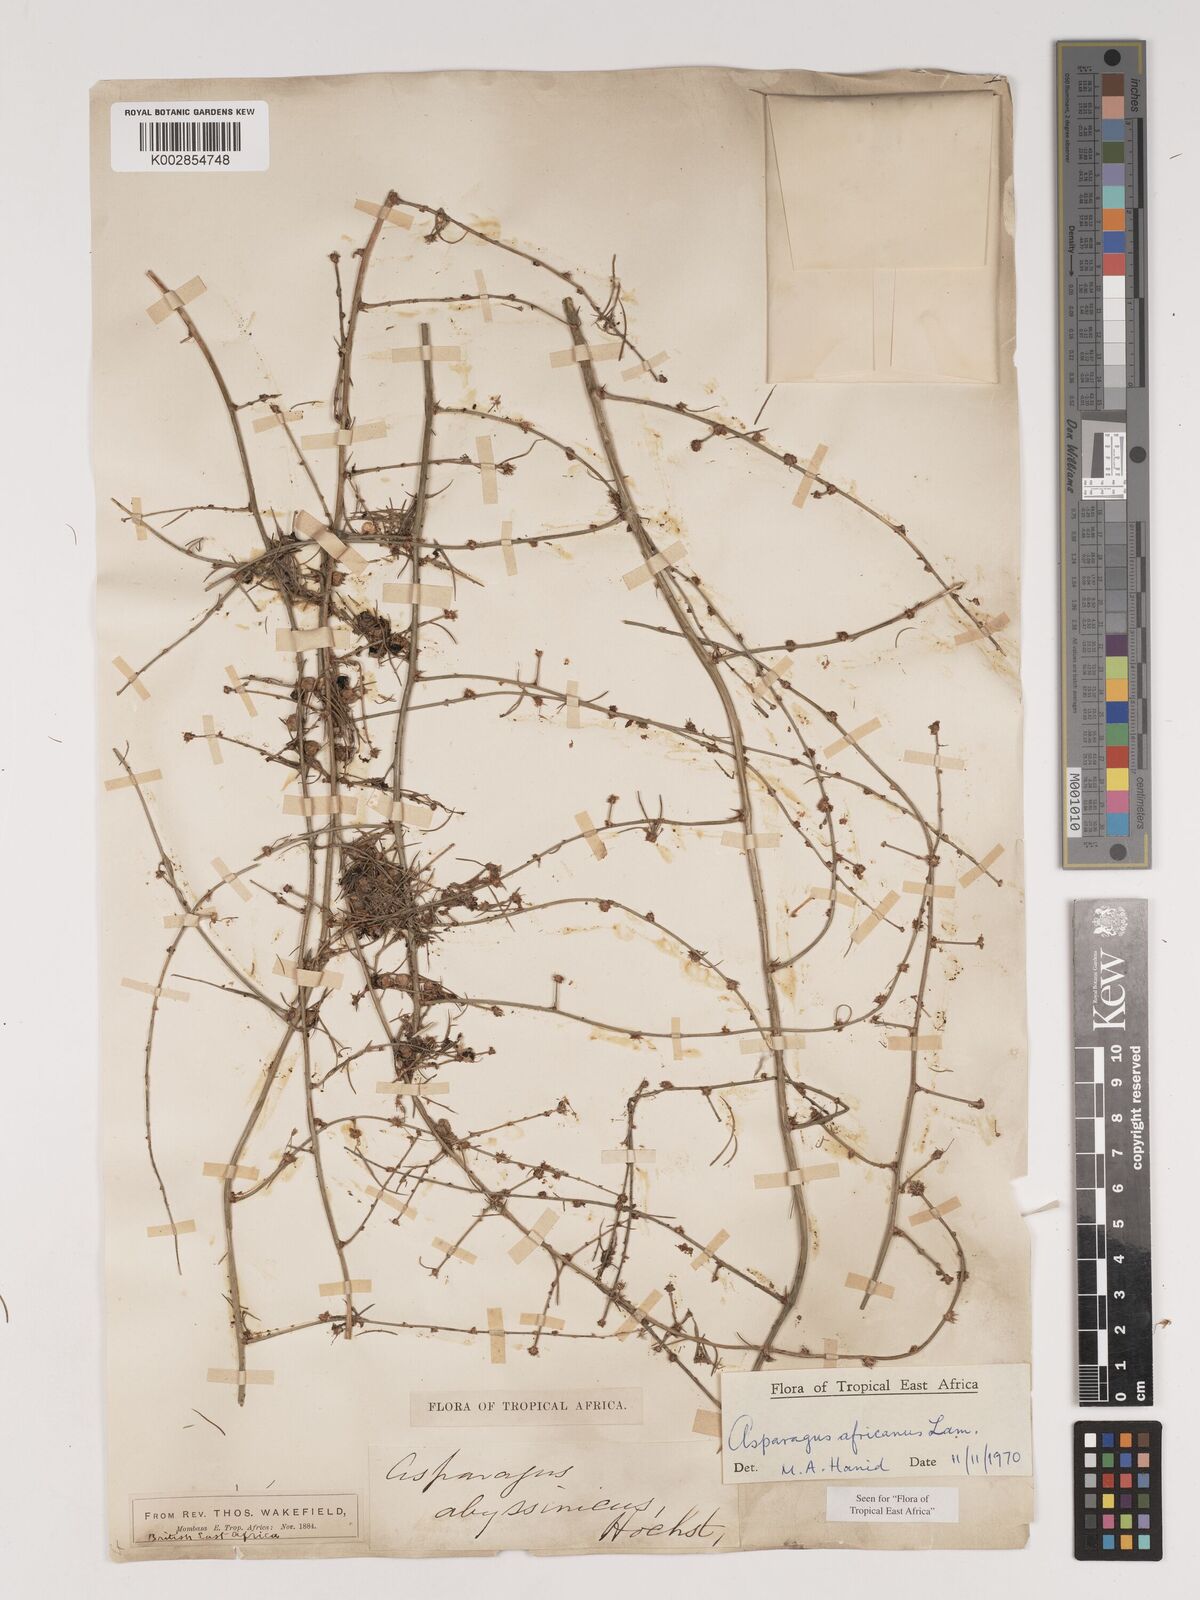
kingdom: Plantae
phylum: Tracheophyta
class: Liliopsida
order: Asparagales
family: Asparagaceae
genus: Asparagus
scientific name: Asparagus africanus
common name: Asparagus-fern
